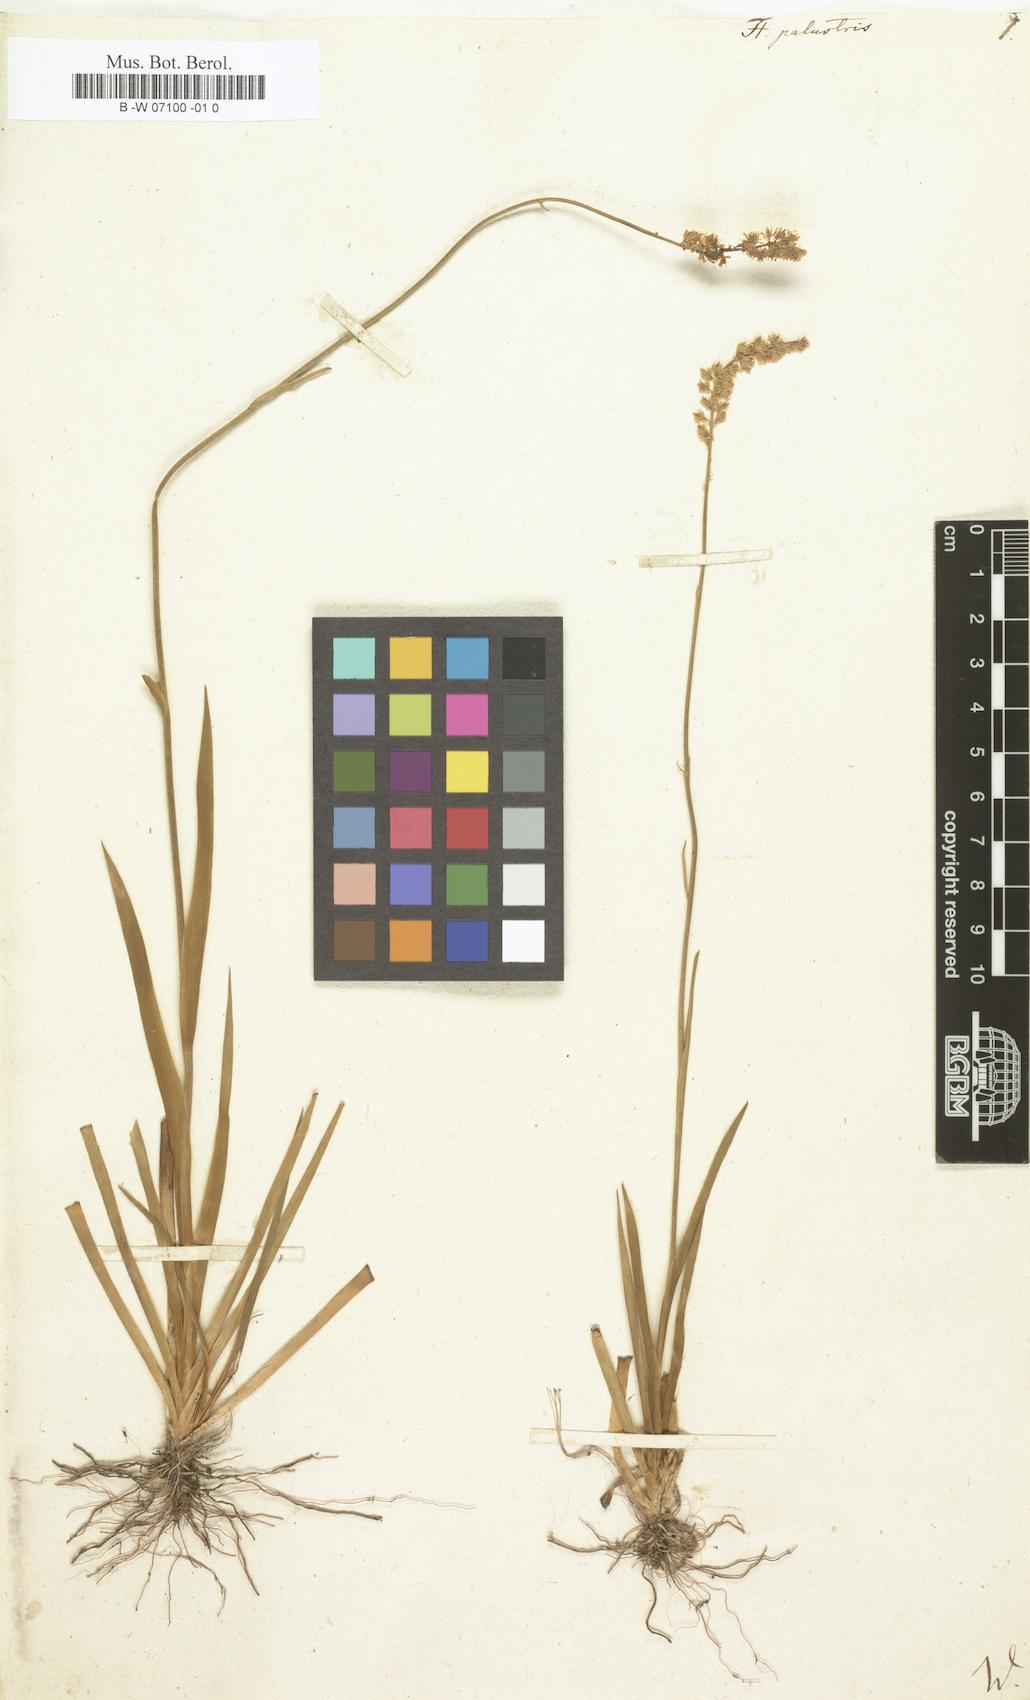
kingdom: Plantae
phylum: Tracheophyta
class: Liliopsida
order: Alismatales
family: Tofieldiaceae
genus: Tofieldia
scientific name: Tofieldia calyculata
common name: German-asphodel
